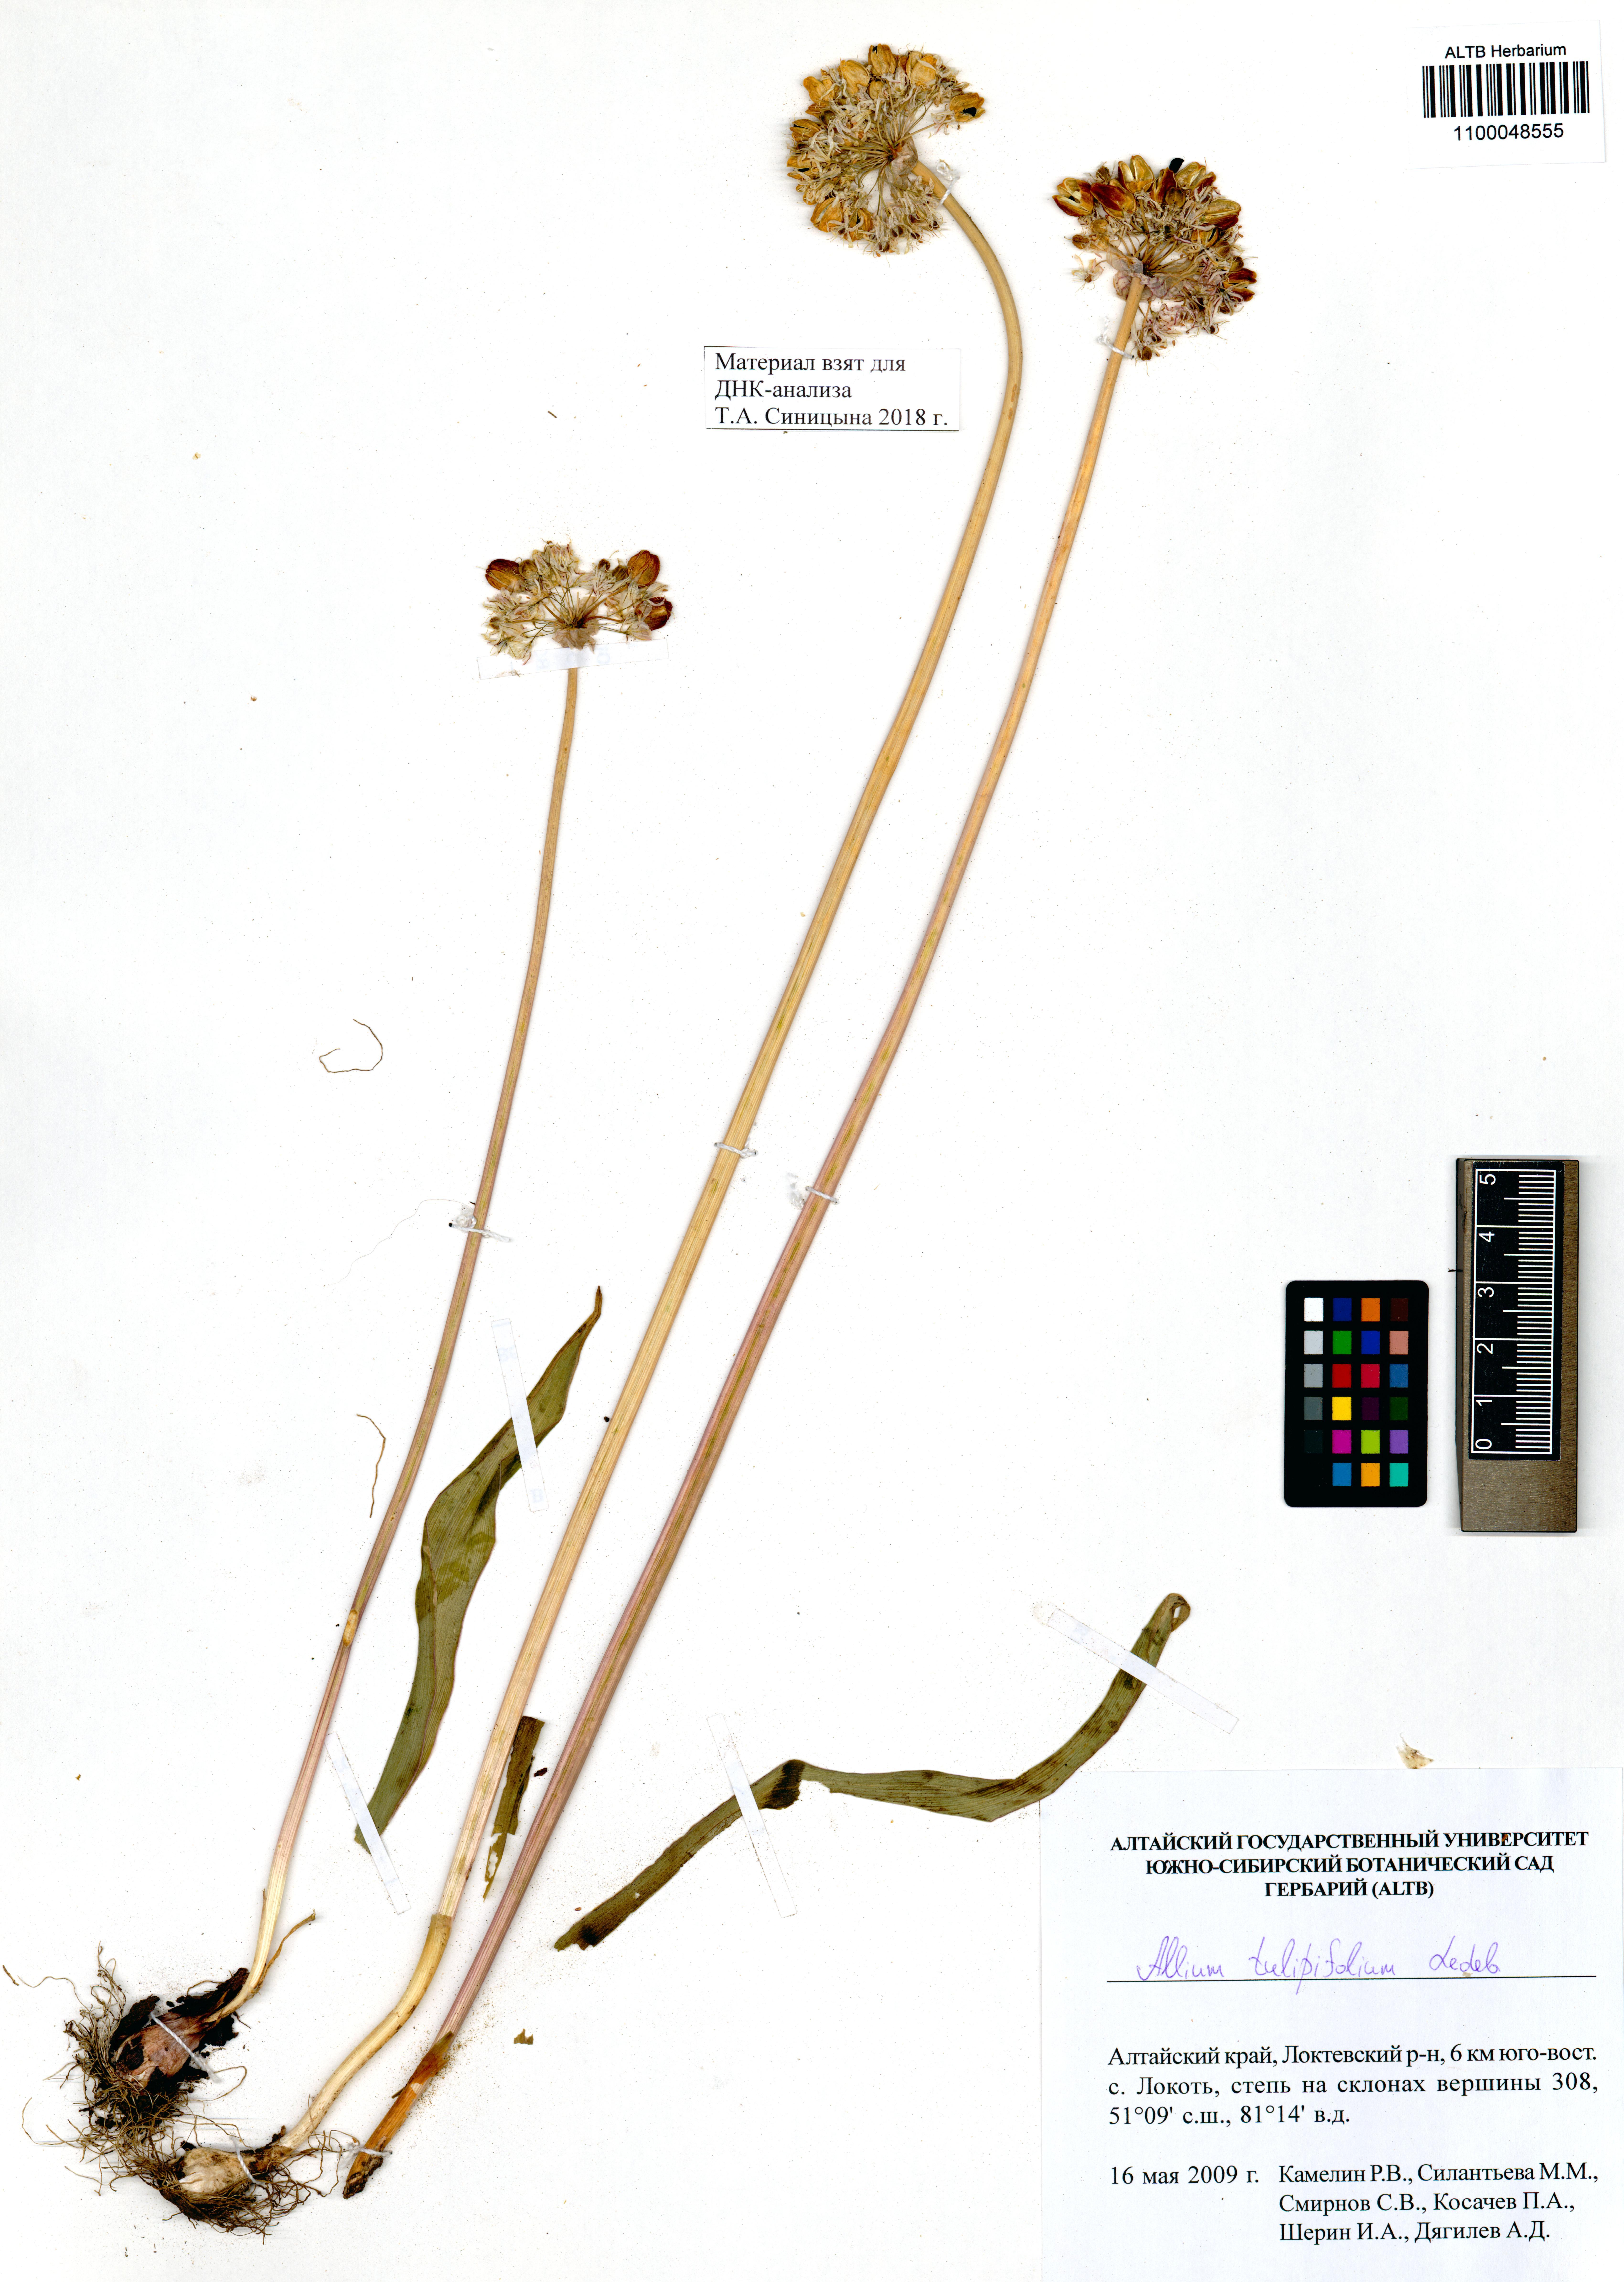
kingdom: Plantae
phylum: Tracheophyta
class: Liliopsida
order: Asparagales
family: Amaryllidaceae
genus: Allium
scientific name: Allium tulipifolium
